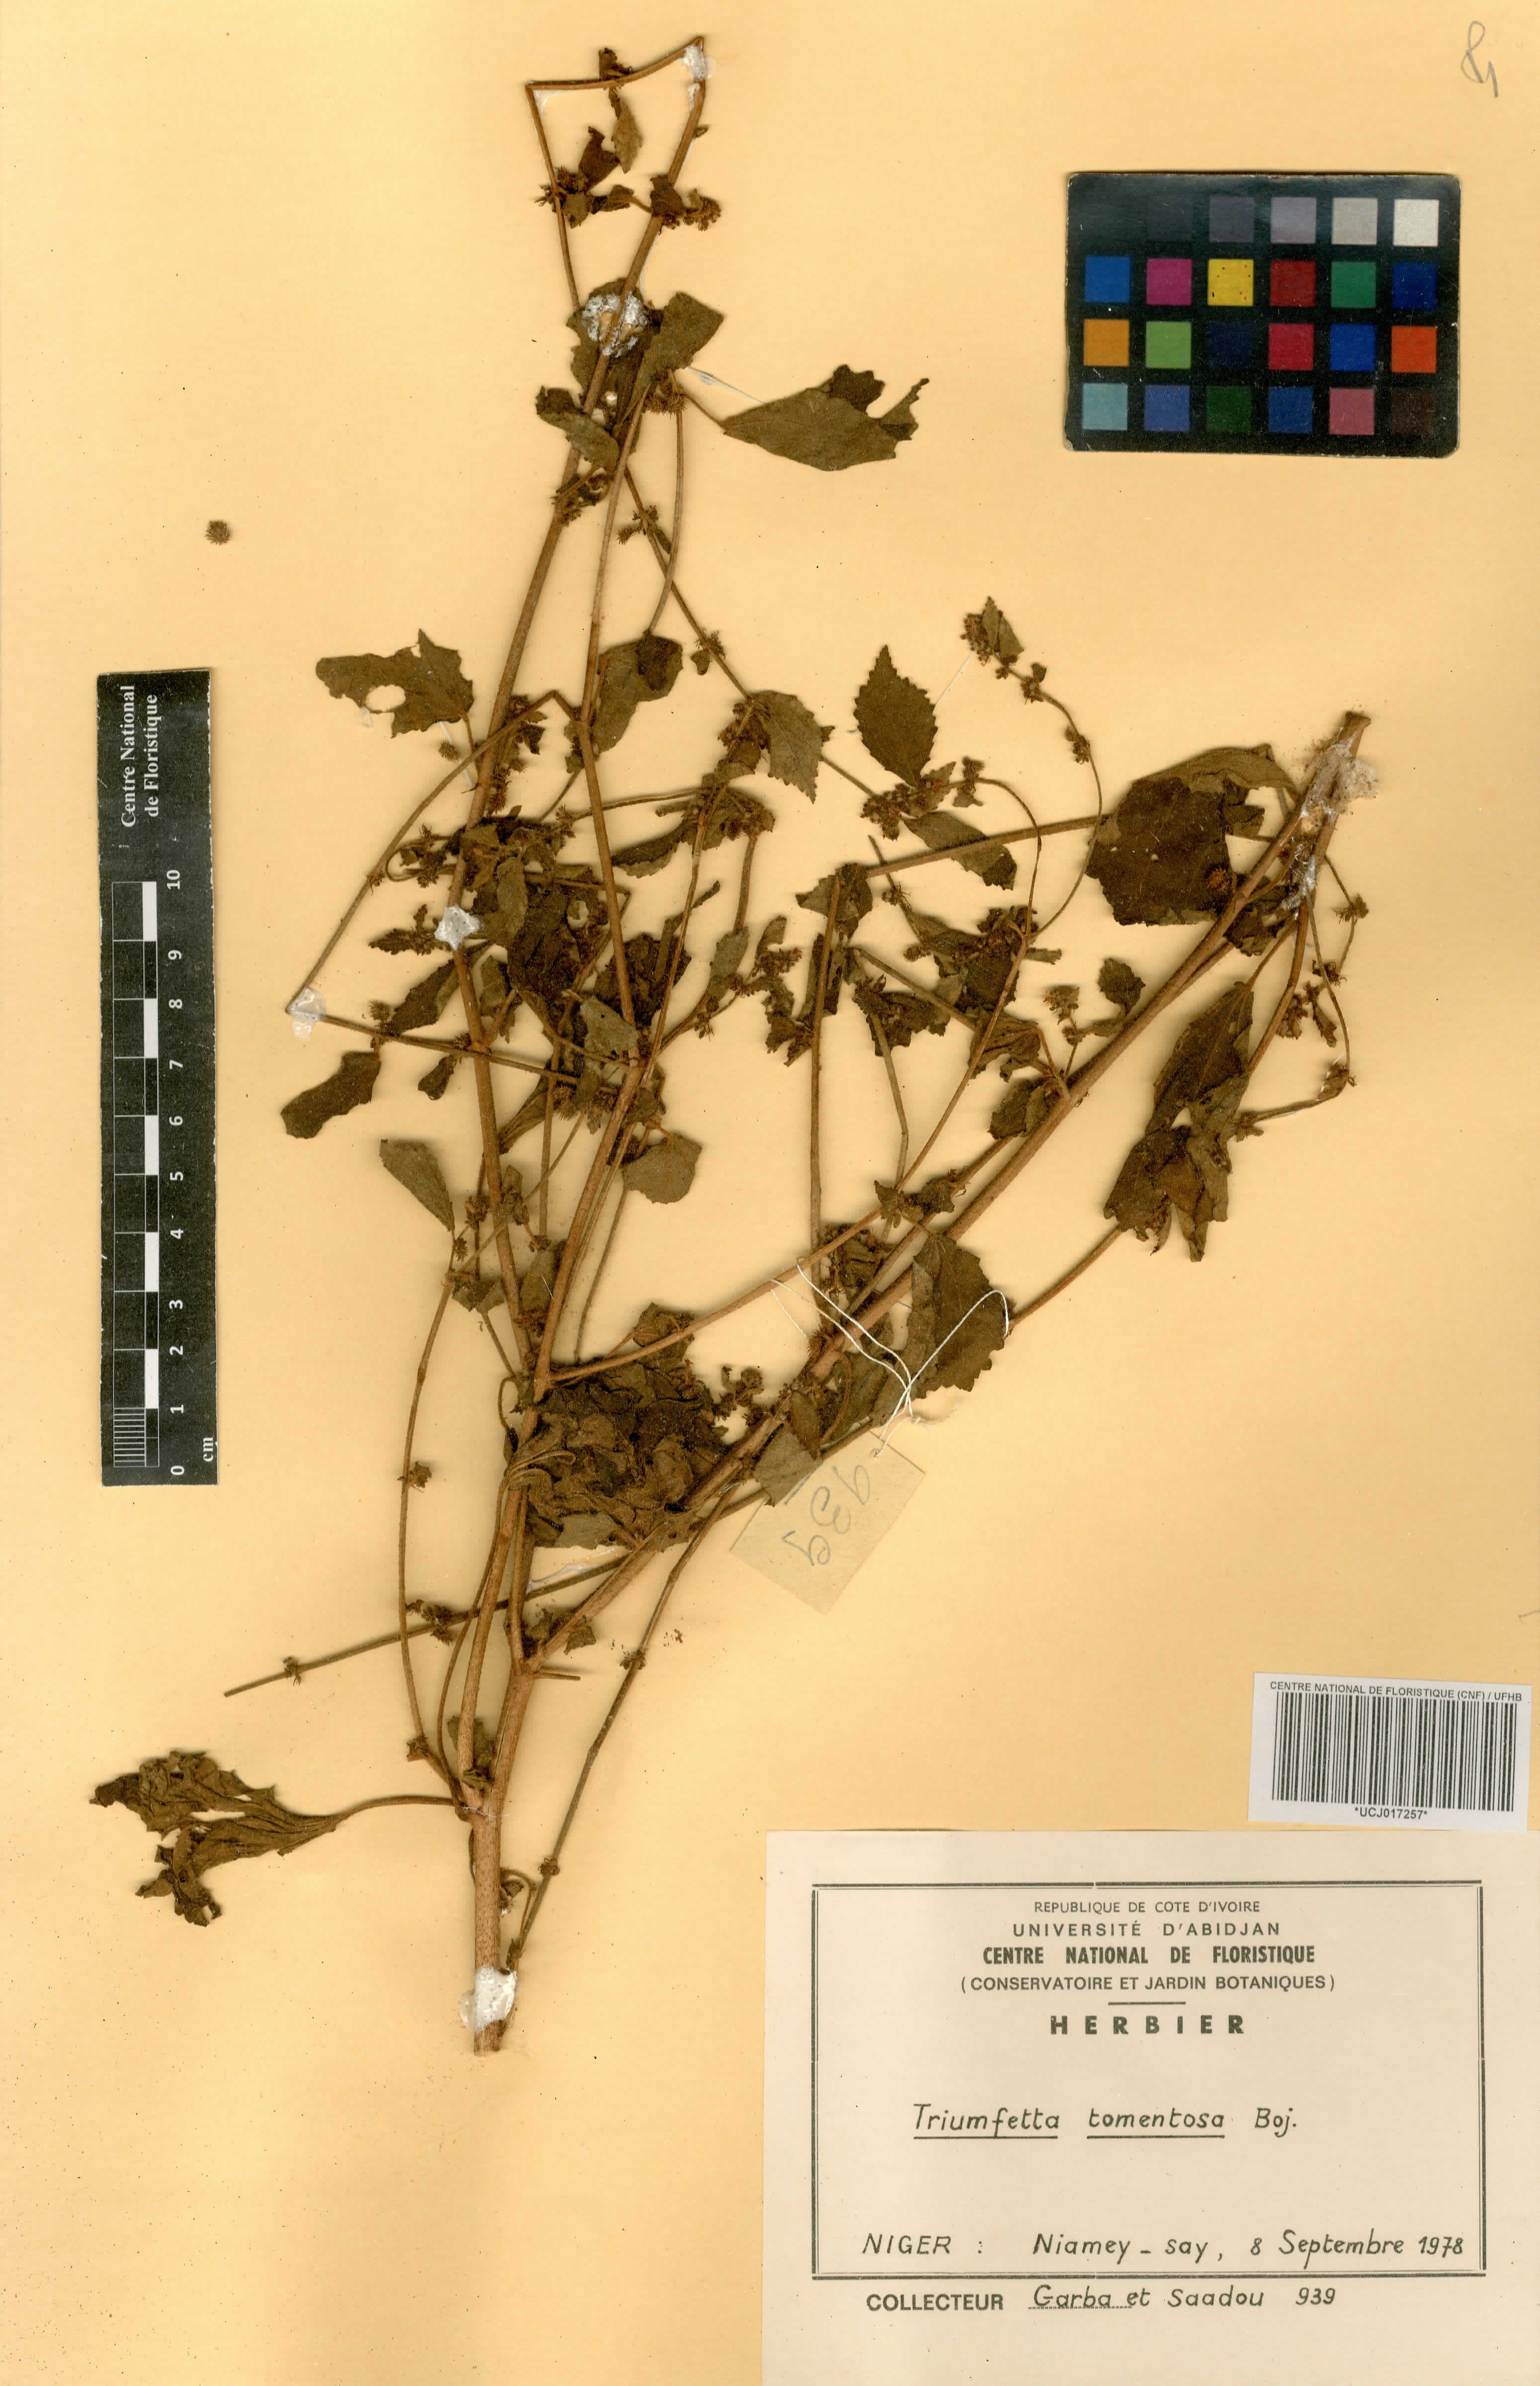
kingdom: Plantae
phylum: Tracheophyta
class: Magnoliopsida
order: Malvales
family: Malvaceae
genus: Triumfetta
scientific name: Triumfetta tomentosa
